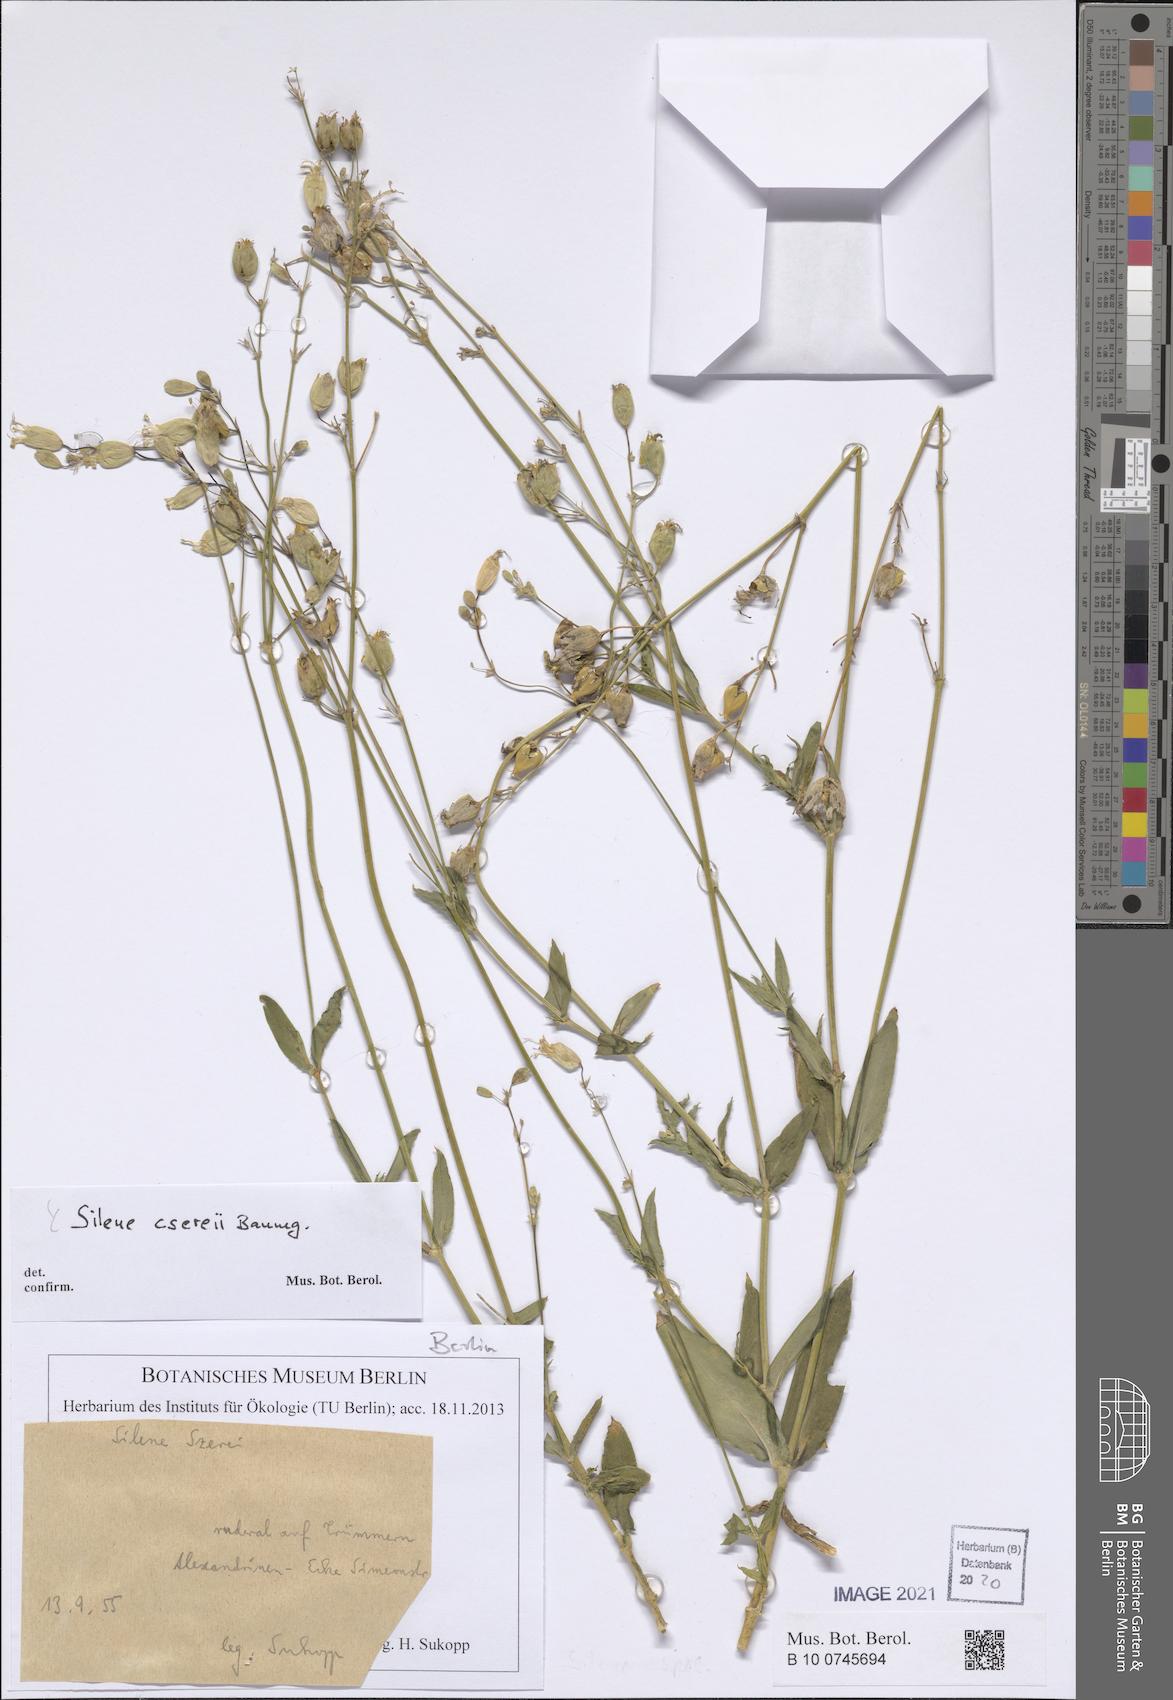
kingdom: Plantae
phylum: Tracheophyta
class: Magnoliopsida
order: Caryophyllales
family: Caryophyllaceae
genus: Silene
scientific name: Silene csereii
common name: Balkan catchfly
